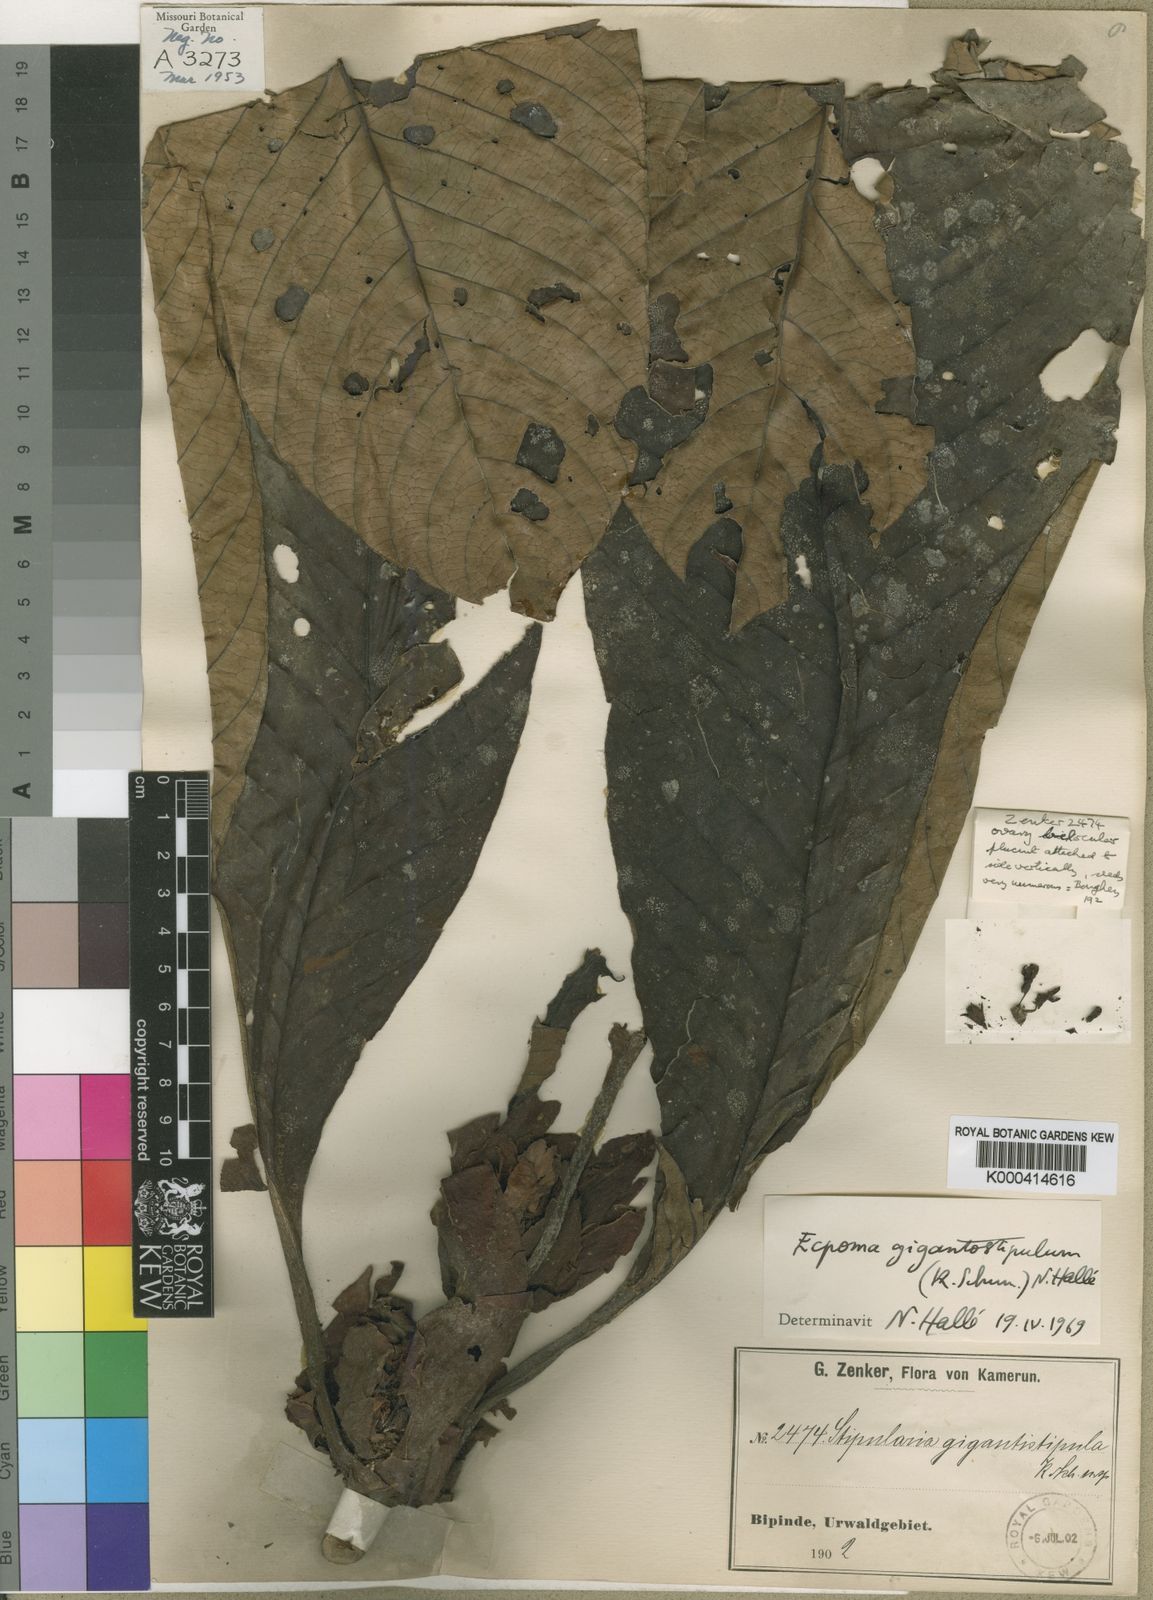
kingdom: Plantae
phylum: Tracheophyta
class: Magnoliopsida
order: Gentianales
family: Rubiaceae
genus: Sabicea
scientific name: Sabicea gigantostipula
